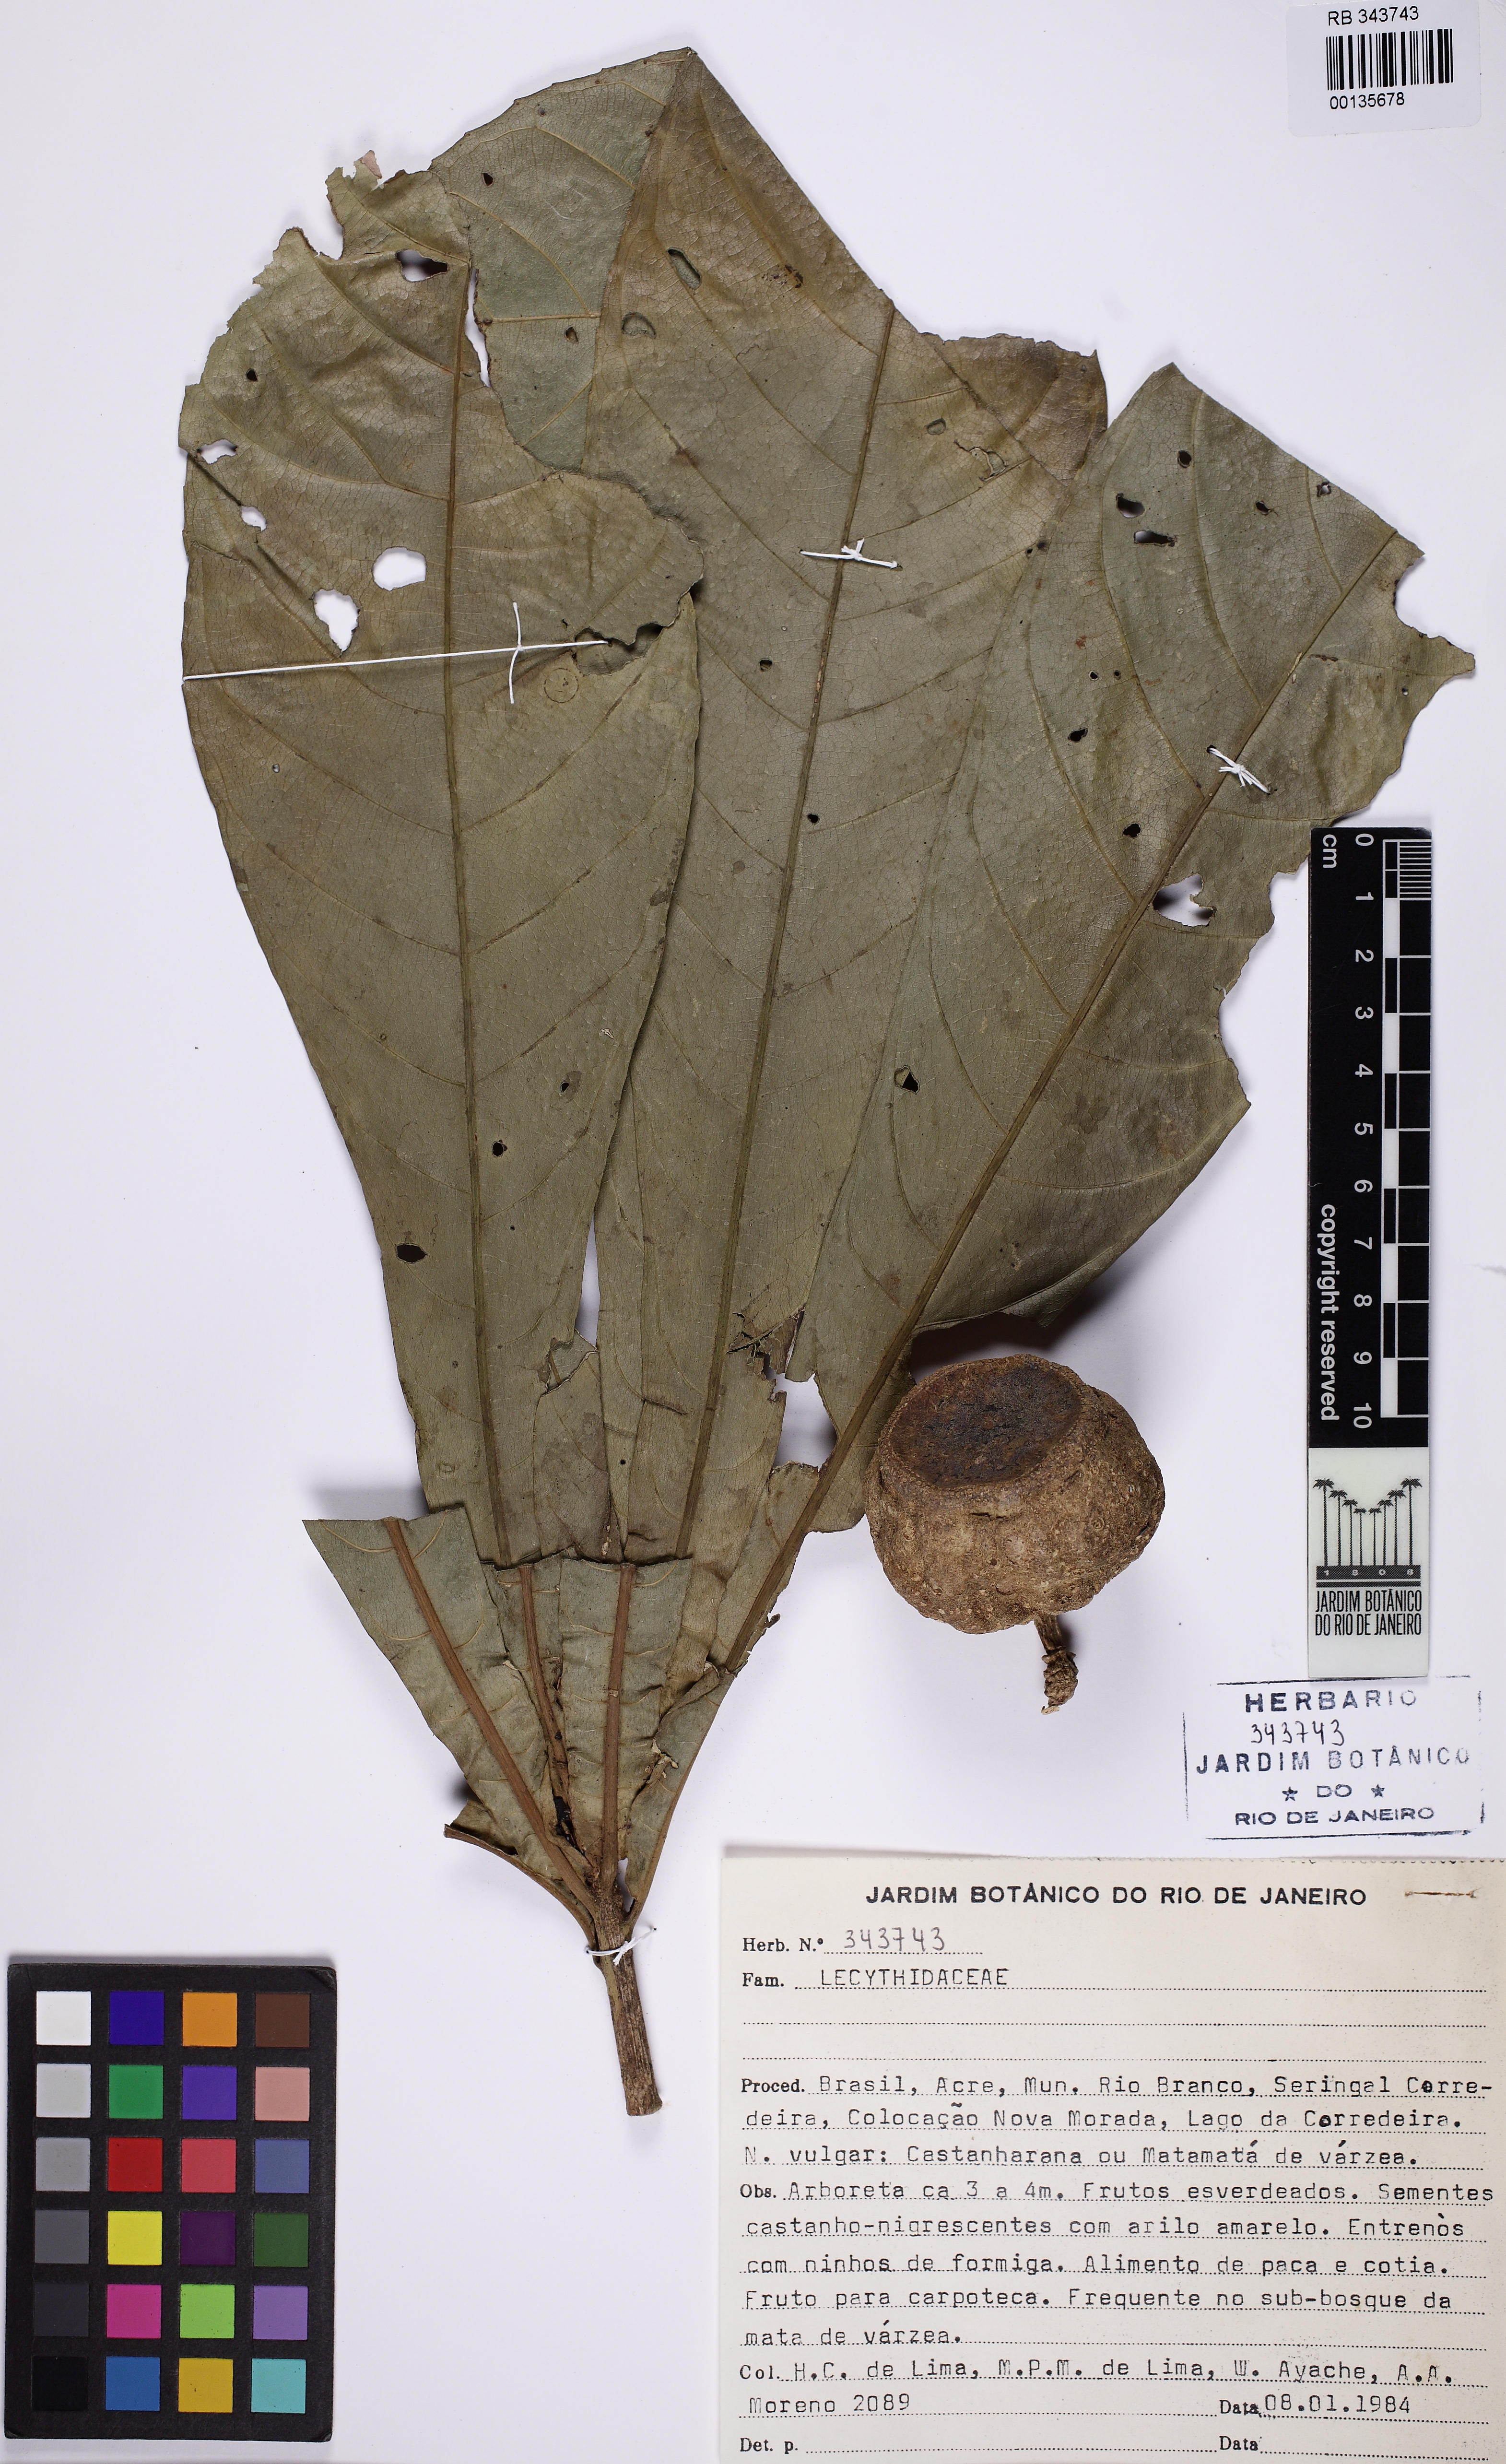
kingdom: Plantae
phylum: Tracheophyta
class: Magnoliopsida
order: Ericales
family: Lecythidaceae
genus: Gustavia
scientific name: Gustavia poeppigiana
